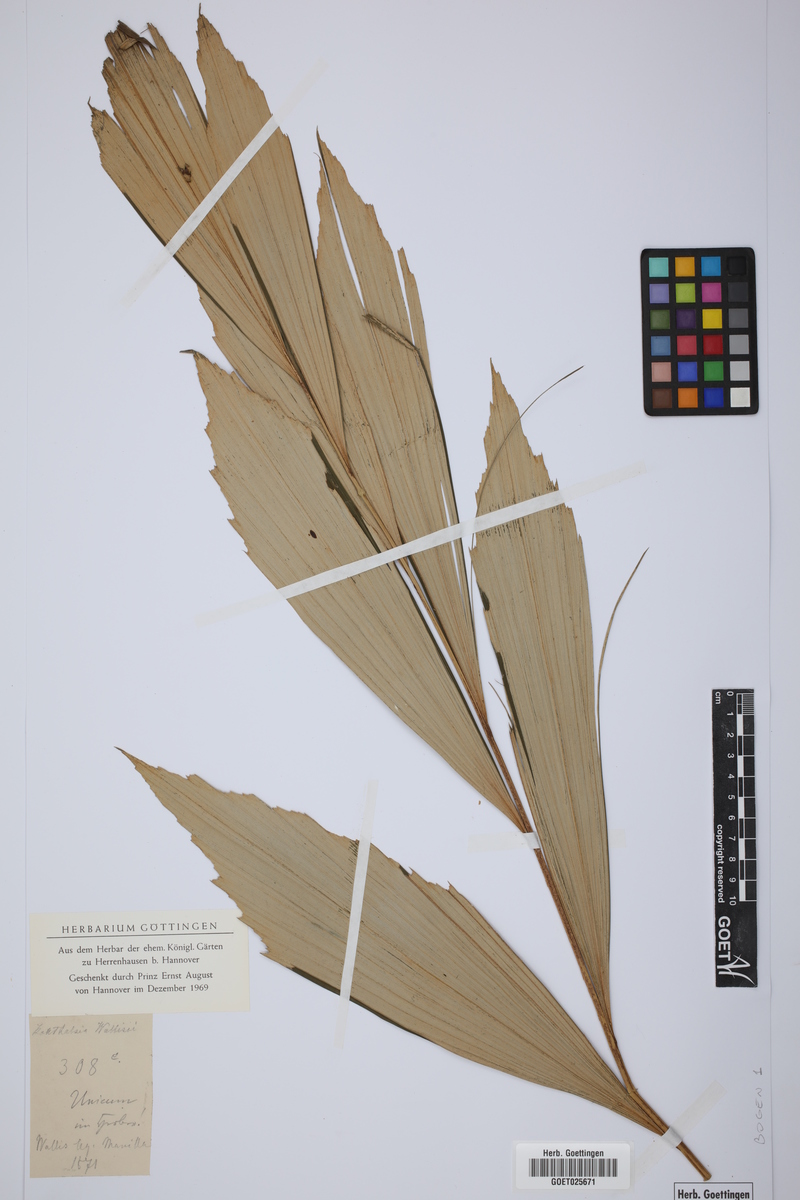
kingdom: Plantae
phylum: Tracheophyta
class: Liliopsida
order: Arecales
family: Arecaceae
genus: Korthalsia
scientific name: Korthalsia
